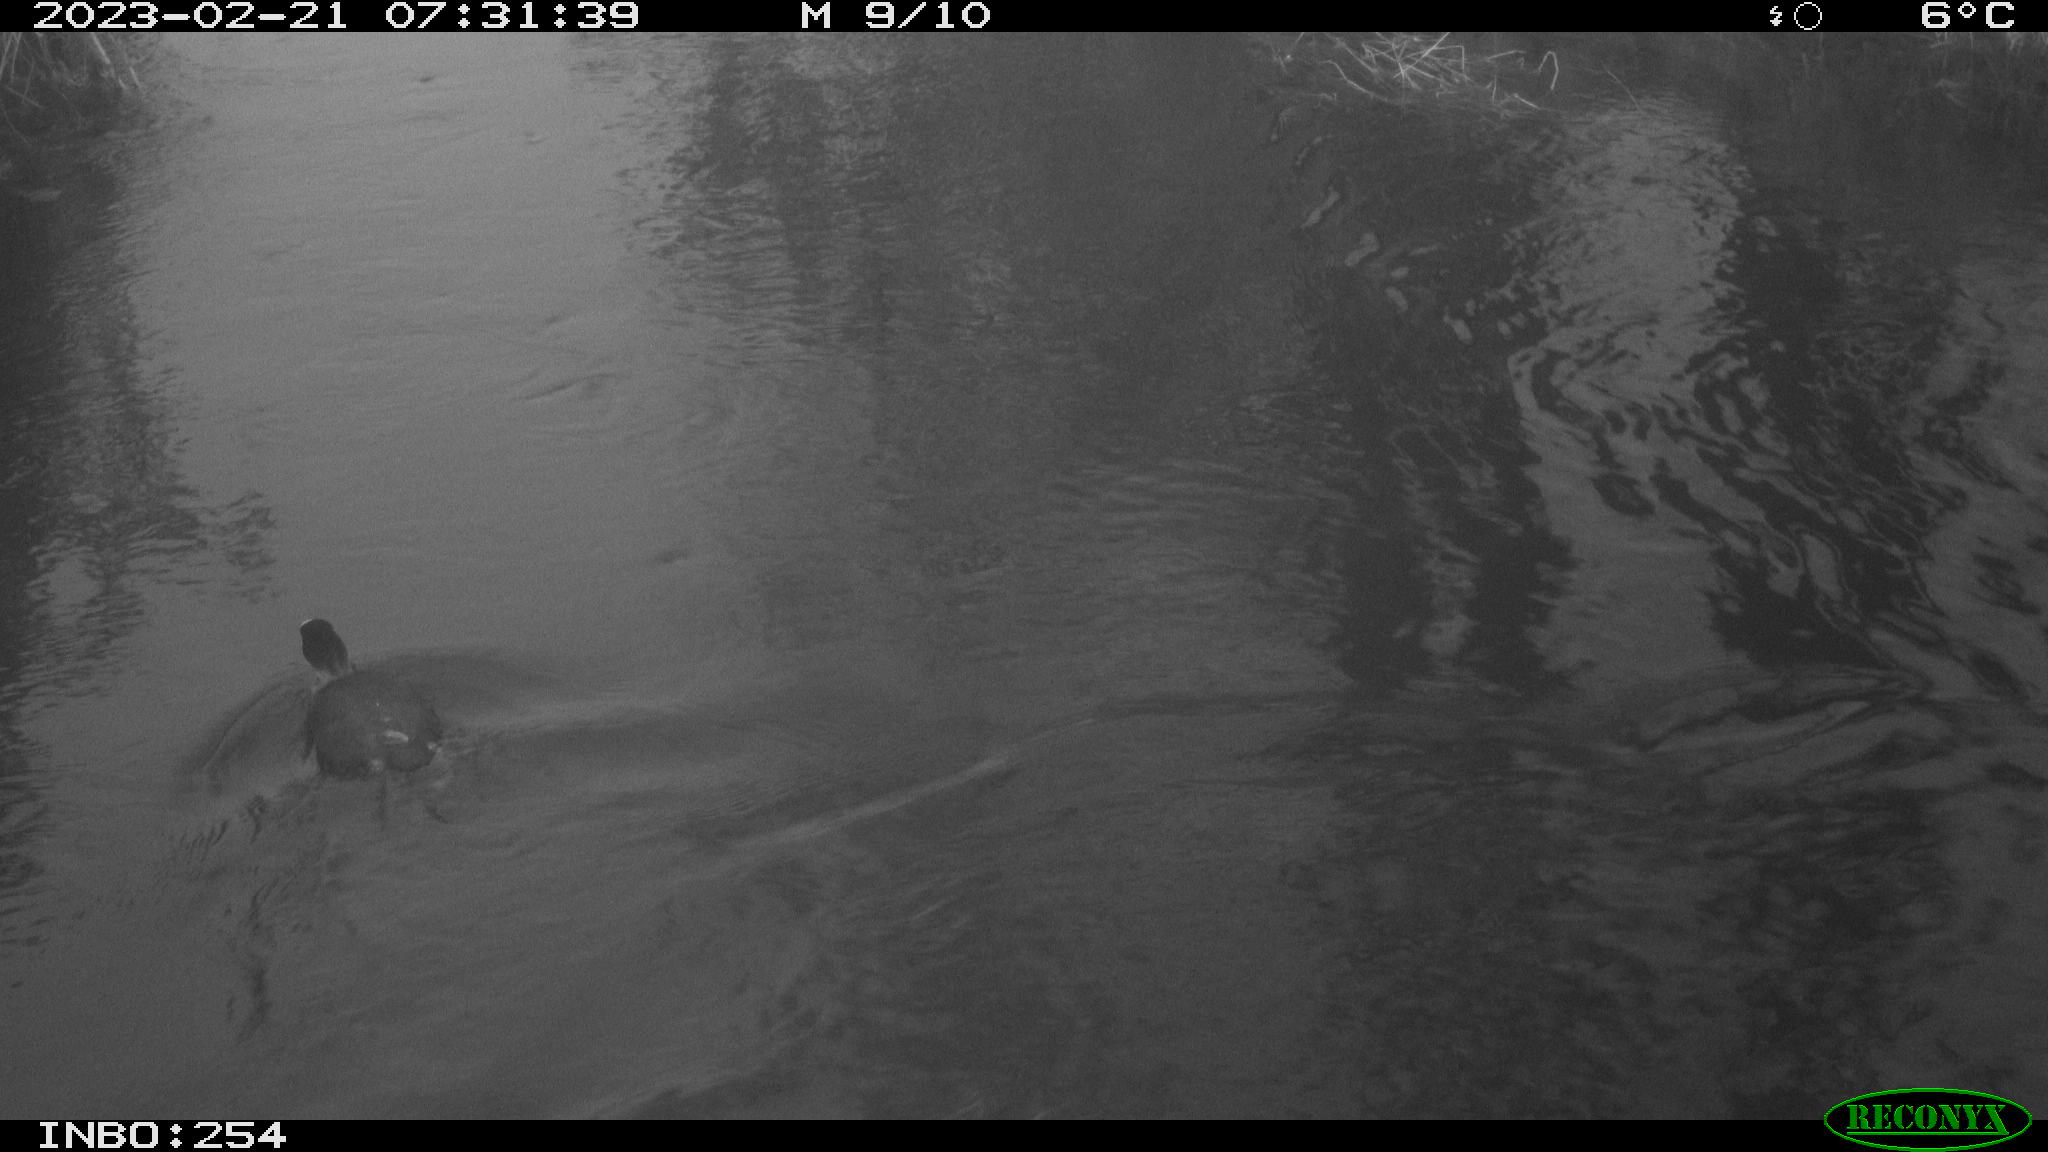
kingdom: Animalia
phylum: Chordata
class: Aves
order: Anseriformes
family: Anatidae
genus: Anas
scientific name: Anas
